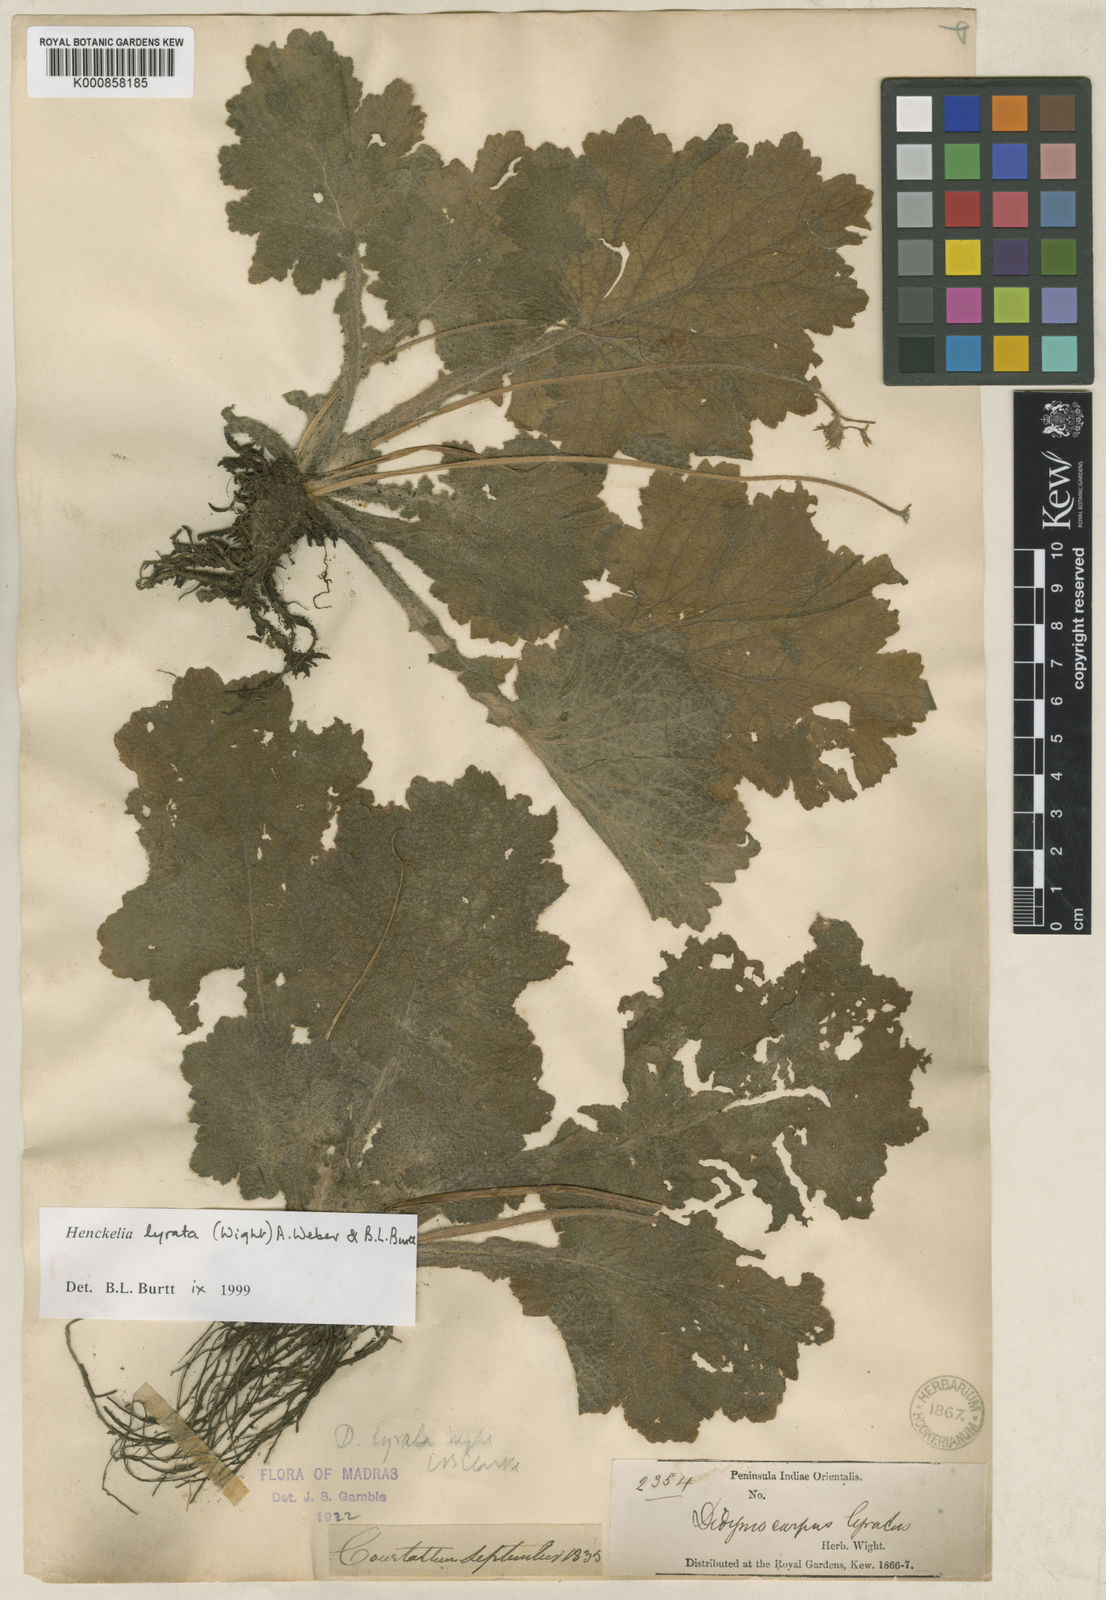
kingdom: Plantae
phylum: Tracheophyta
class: Magnoliopsida
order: Lamiales
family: Gesneriaceae
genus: Henckelia
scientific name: Henckelia lyrata
